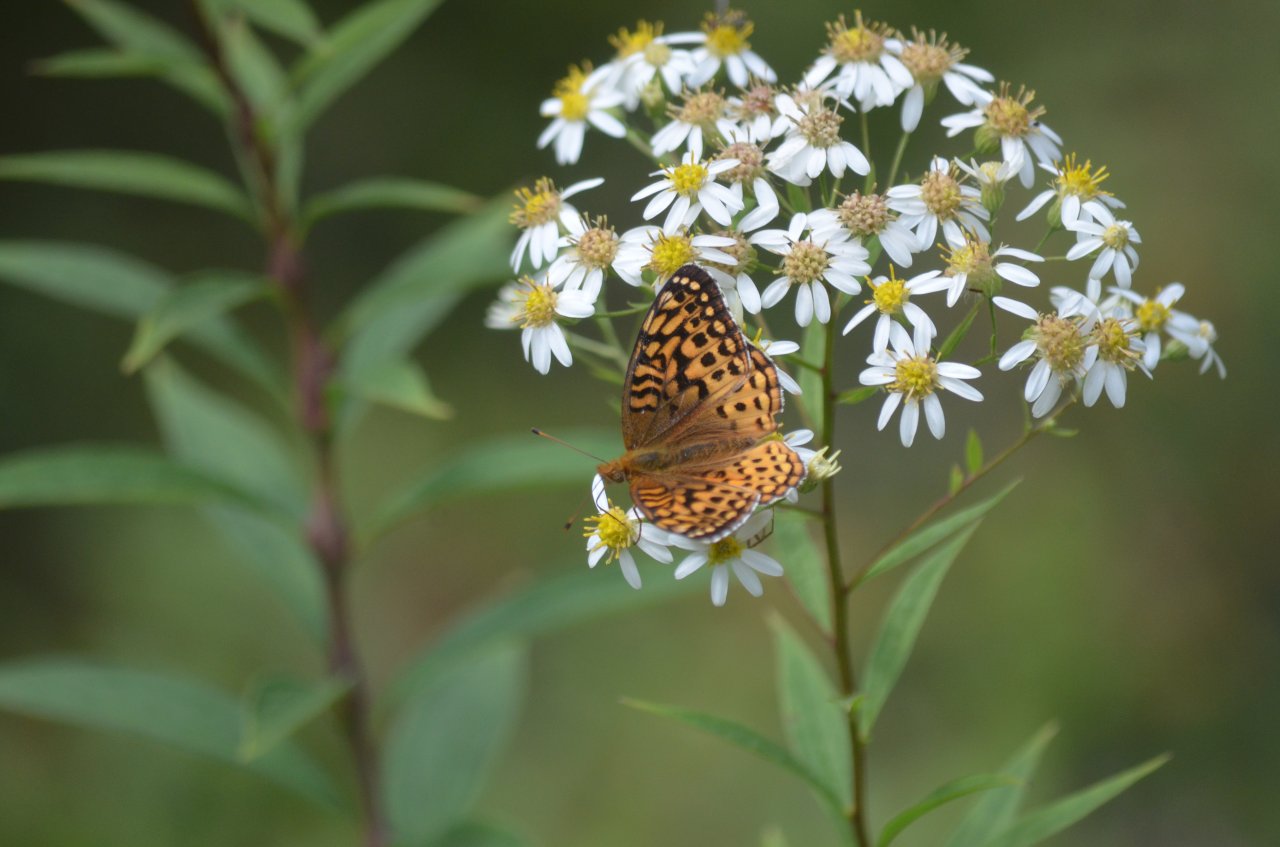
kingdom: Animalia
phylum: Arthropoda
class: Insecta
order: Lepidoptera
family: Nymphalidae
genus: Speyeria
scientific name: Speyeria aphrodite
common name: Aphrodite Fritillary
